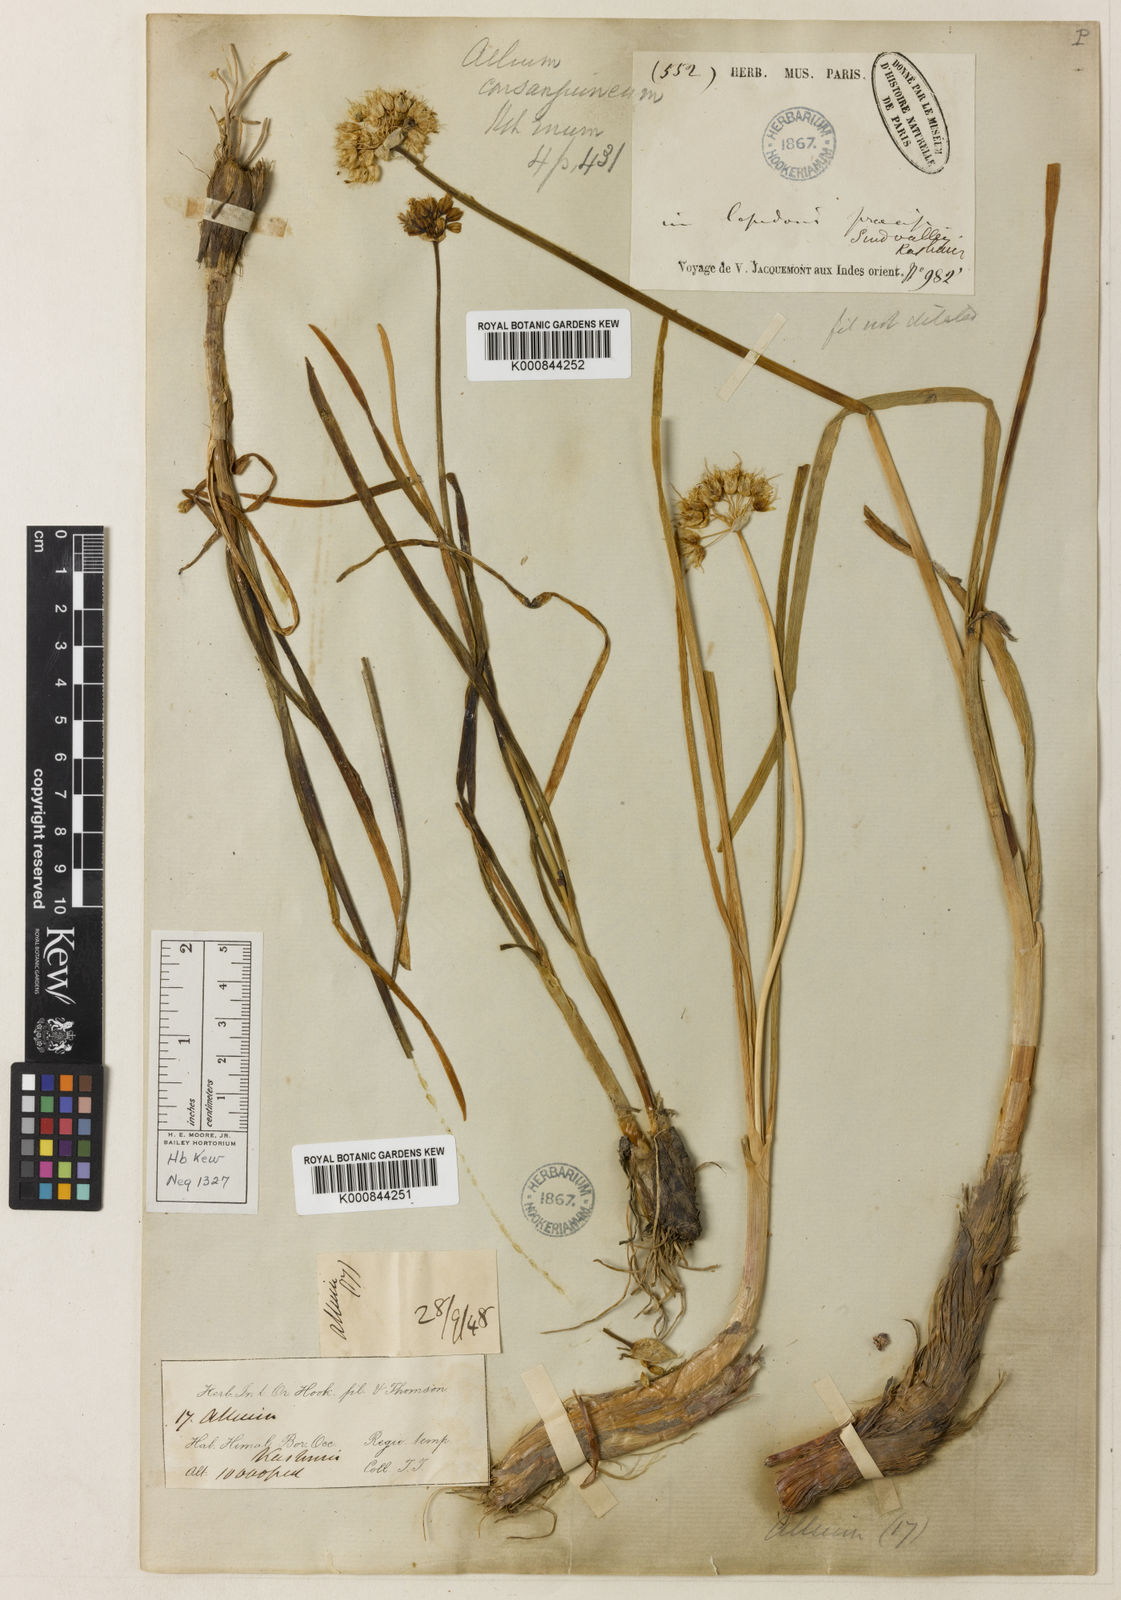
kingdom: Plantae
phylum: Tracheophyta
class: Liliopsida
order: Asparagales
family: Amaryllidaceae
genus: Allium
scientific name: Allium consanguineum
